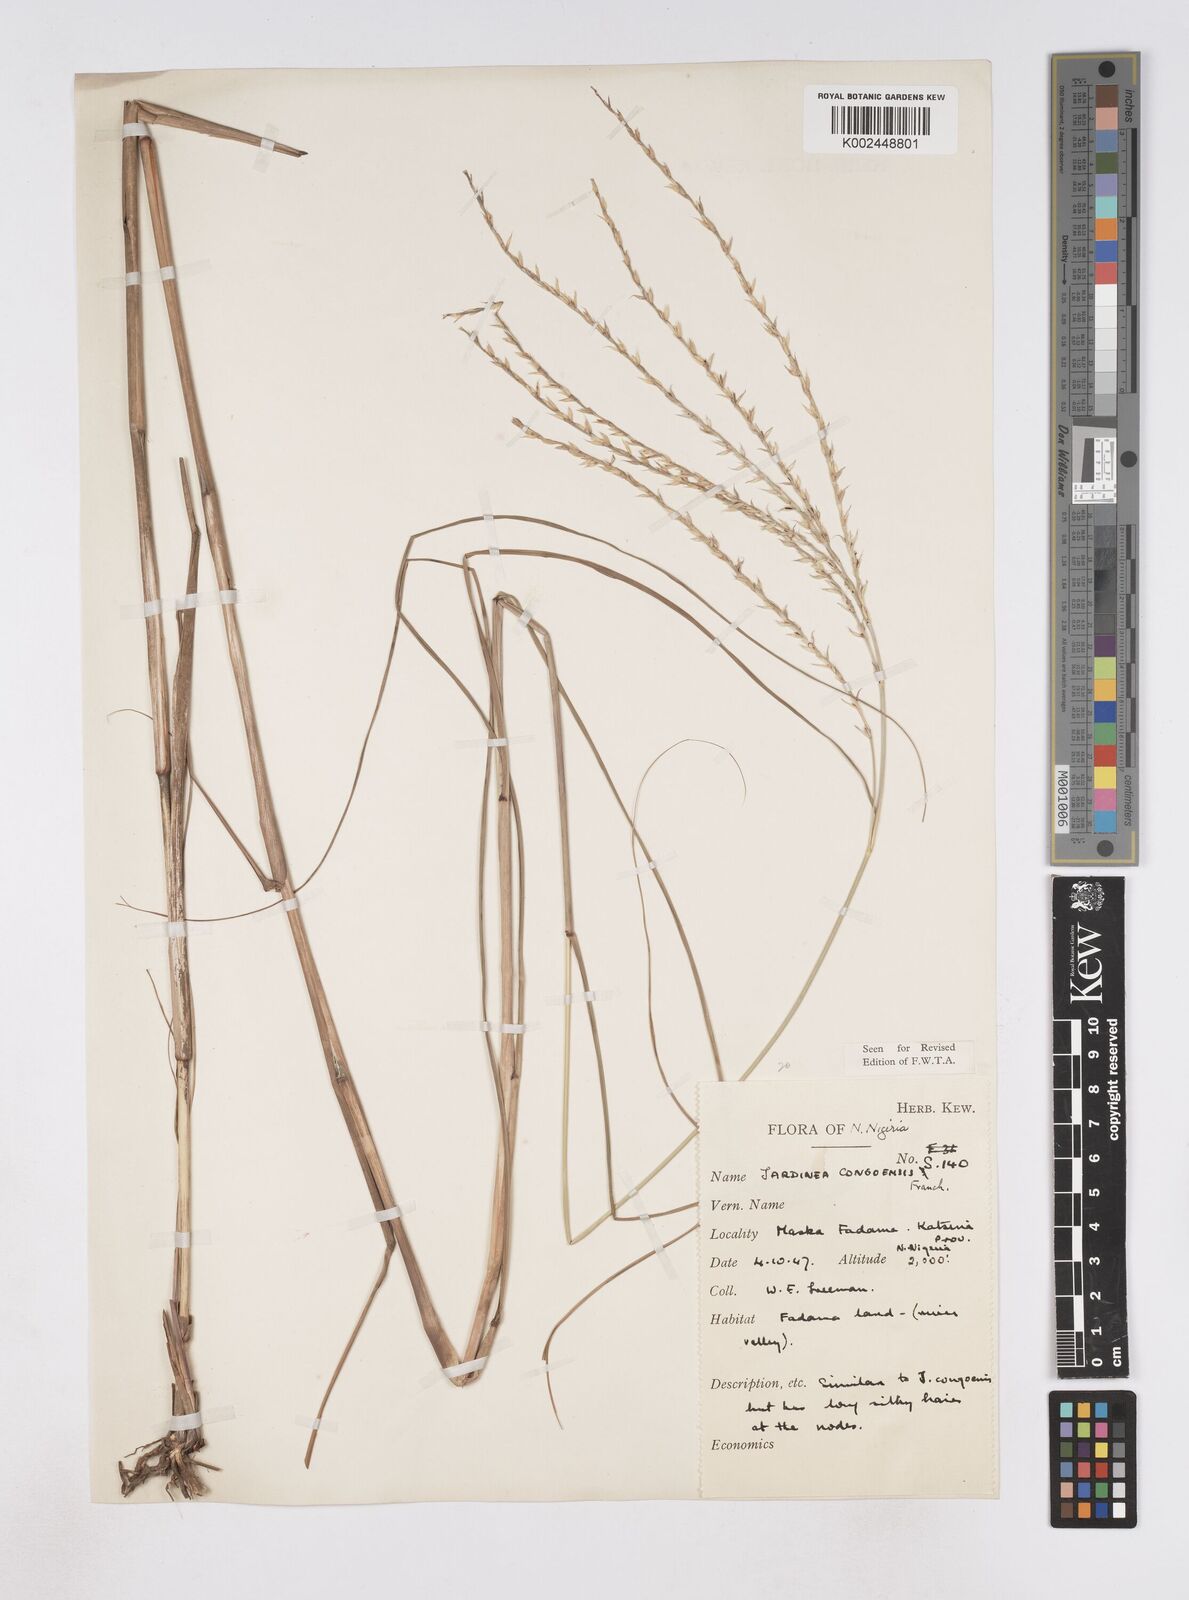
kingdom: Plantae
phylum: Tracheophyta
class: Liliopsida
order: Poales
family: Poaceae
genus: Phacelurus
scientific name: Phacelurus gabonensis
